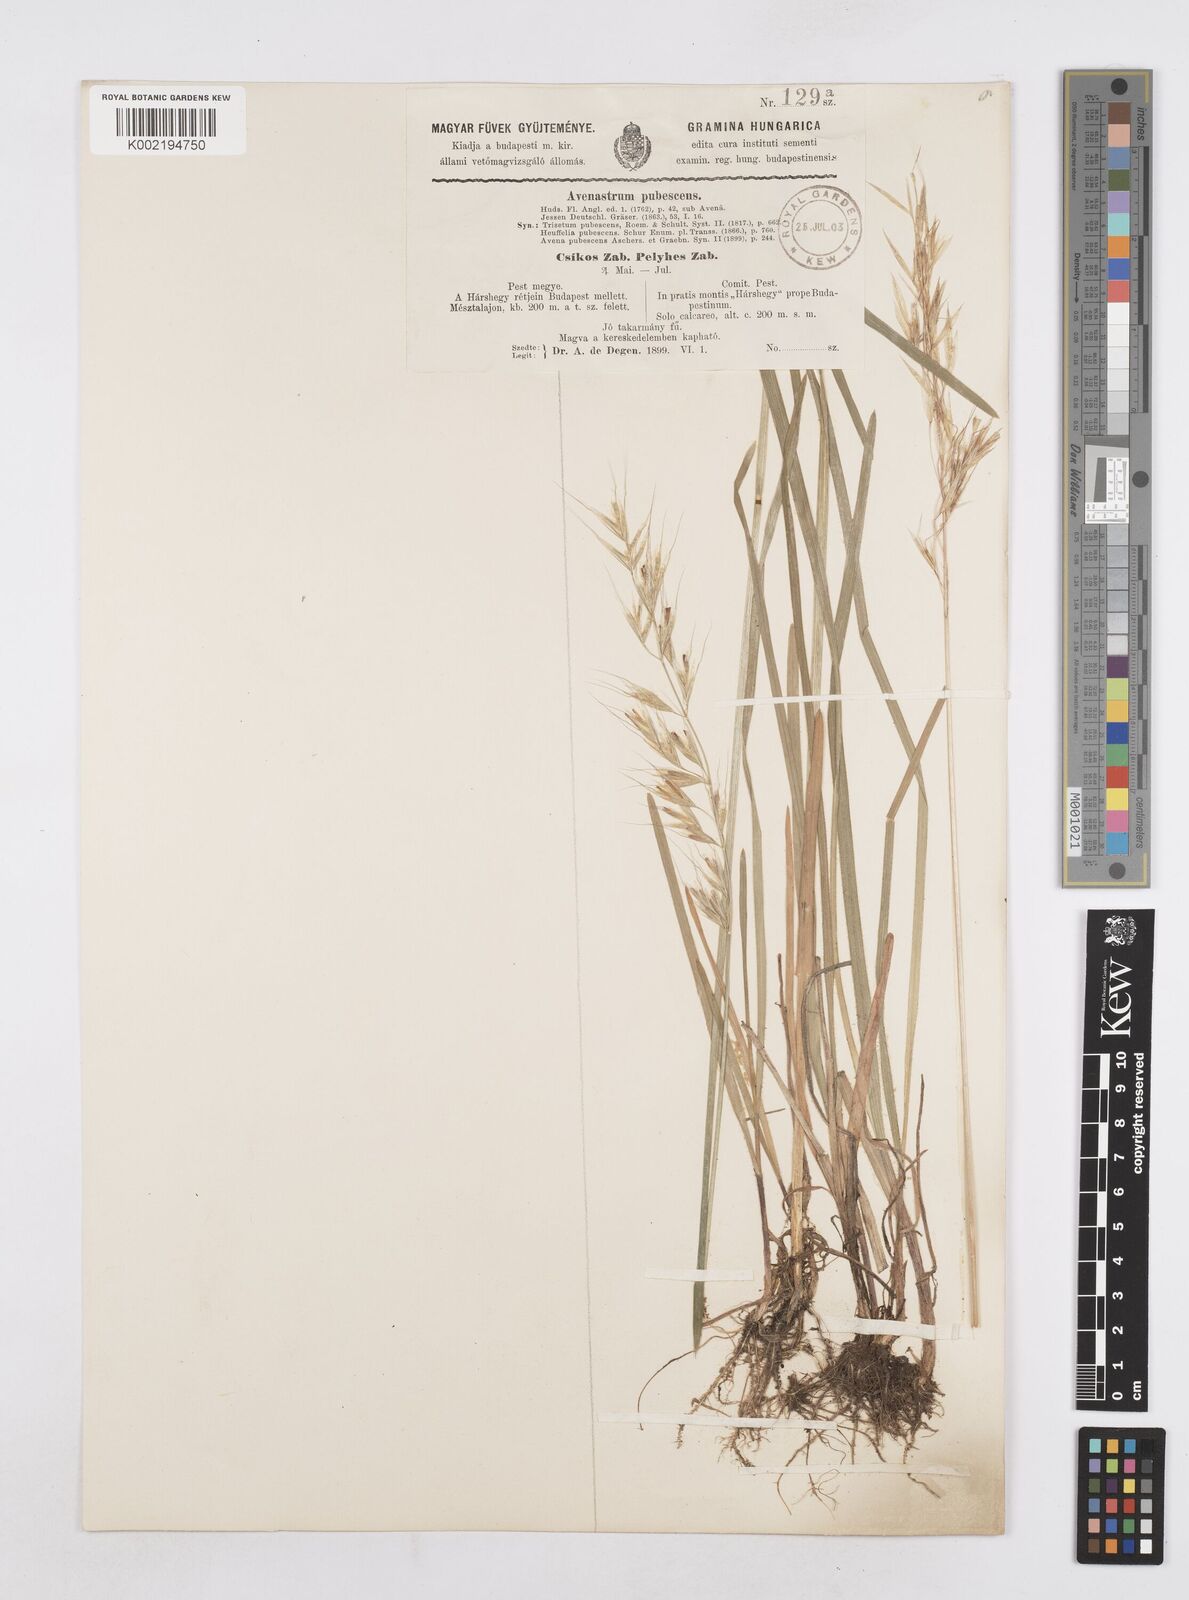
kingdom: Plantae
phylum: Tracheophyta
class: Liliopsida
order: Poales
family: Poaceae
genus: Avenula
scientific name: Avenula pubescens
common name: Downy alpine oatgrass
